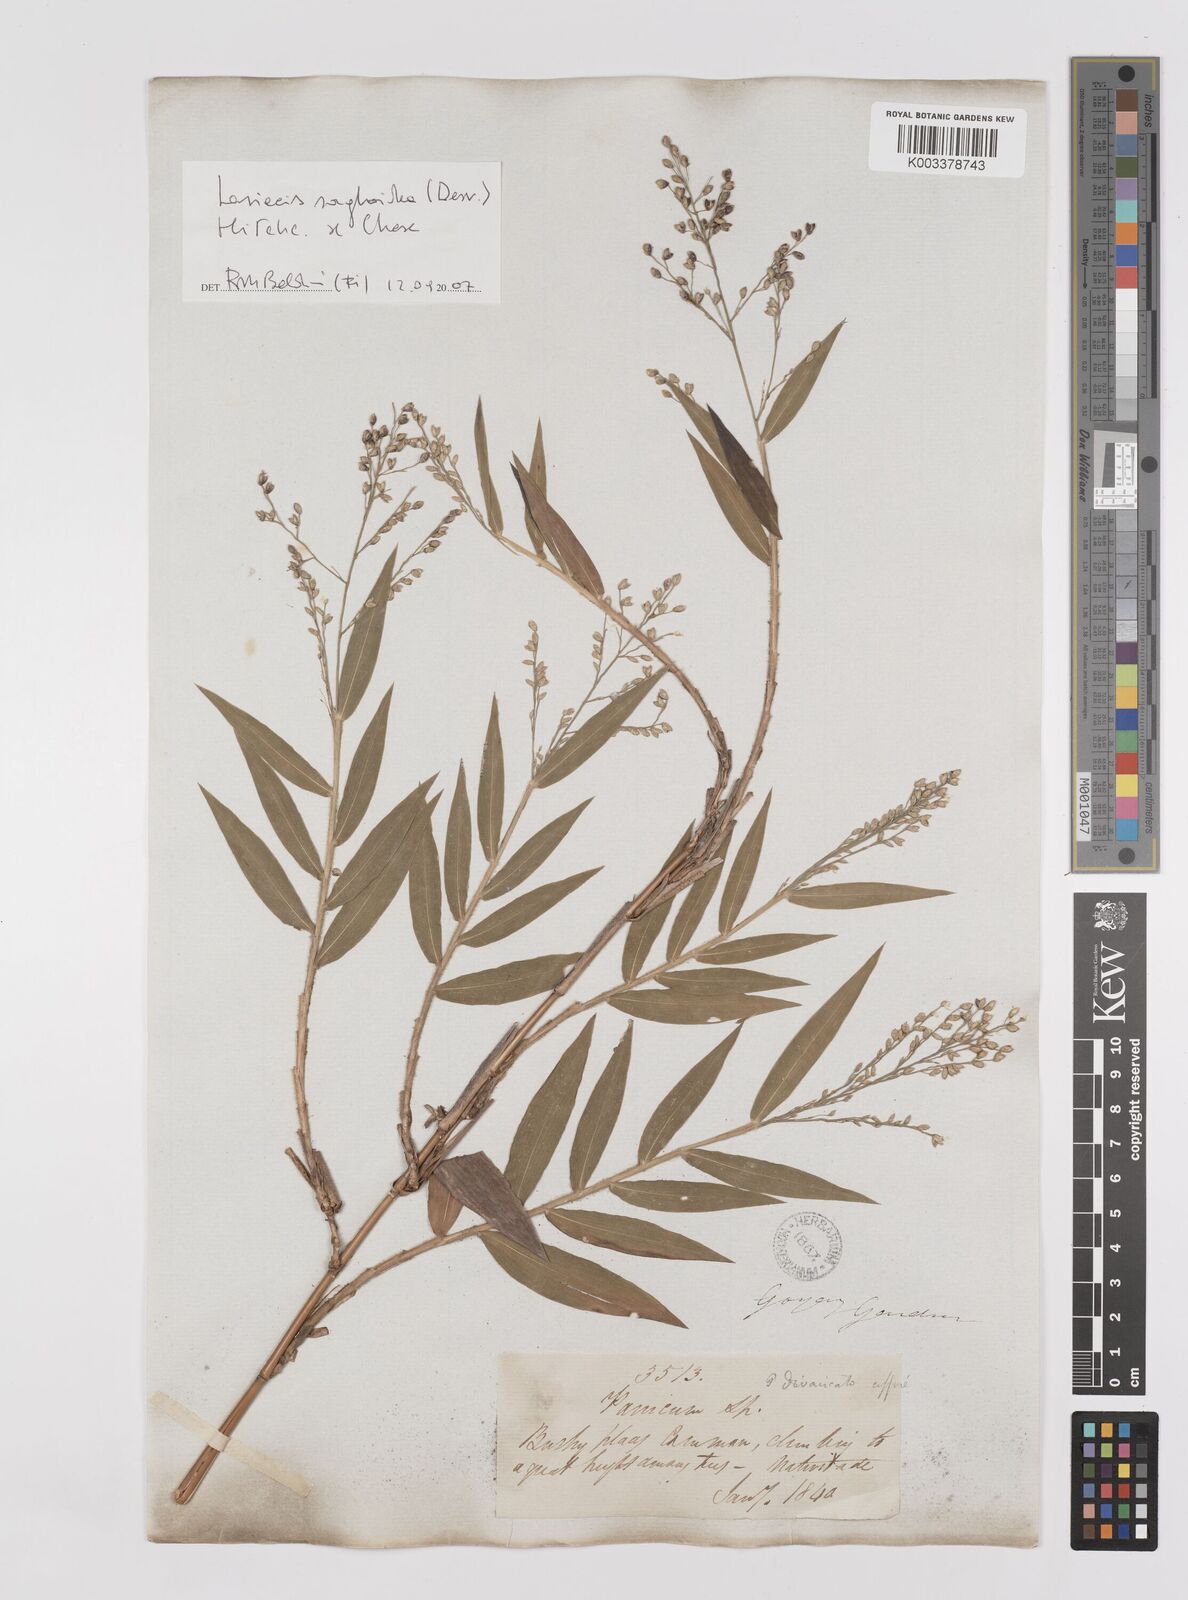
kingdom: Plantae
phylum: Tracheophyta
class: Liliopsida
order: Poales
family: Poaceae
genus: Lasiacis
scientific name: Lasiacis maculata
